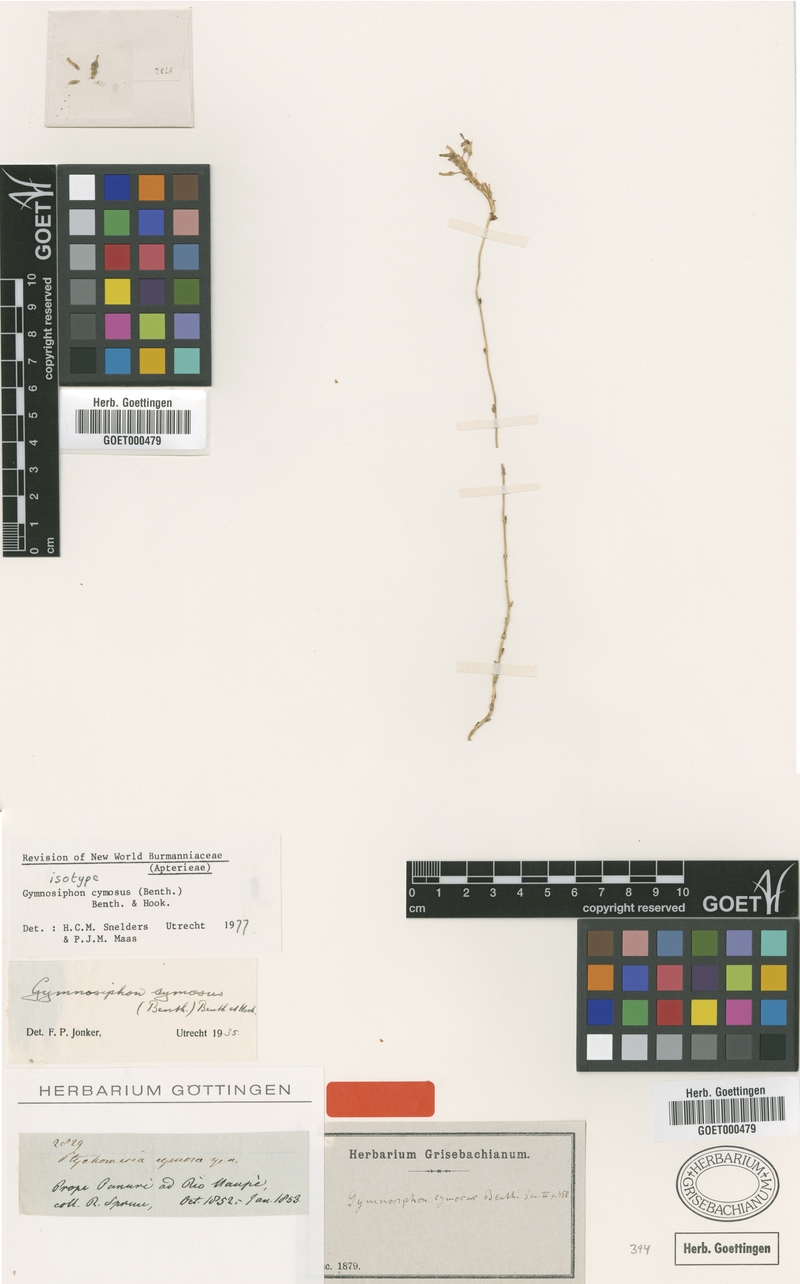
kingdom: Plantae
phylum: Tracheophyta
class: Liliopsida
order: Dioscoreales
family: Burmanniaceae
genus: Gymnosiphon
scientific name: Gymnosiphon cymosus
